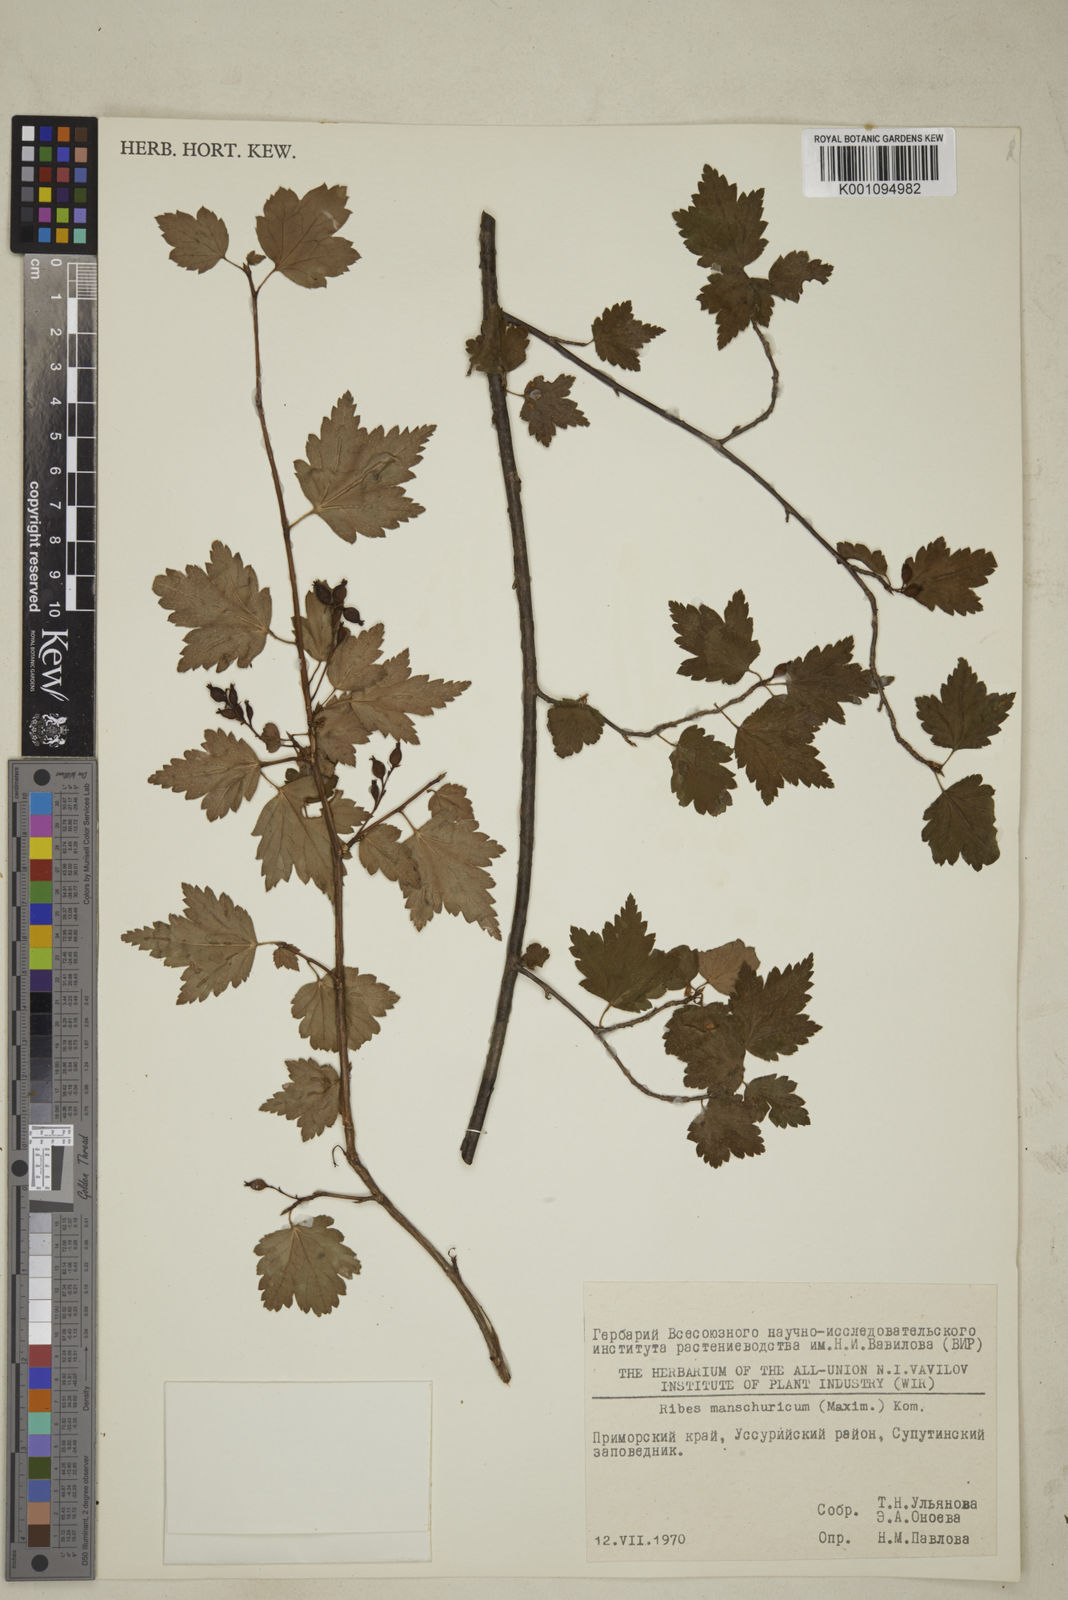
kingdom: Plantae
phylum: Tracheophyta
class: Magnoliopsida
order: Saxifragales
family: Grossulariaceae
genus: Ribes
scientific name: Ribes
